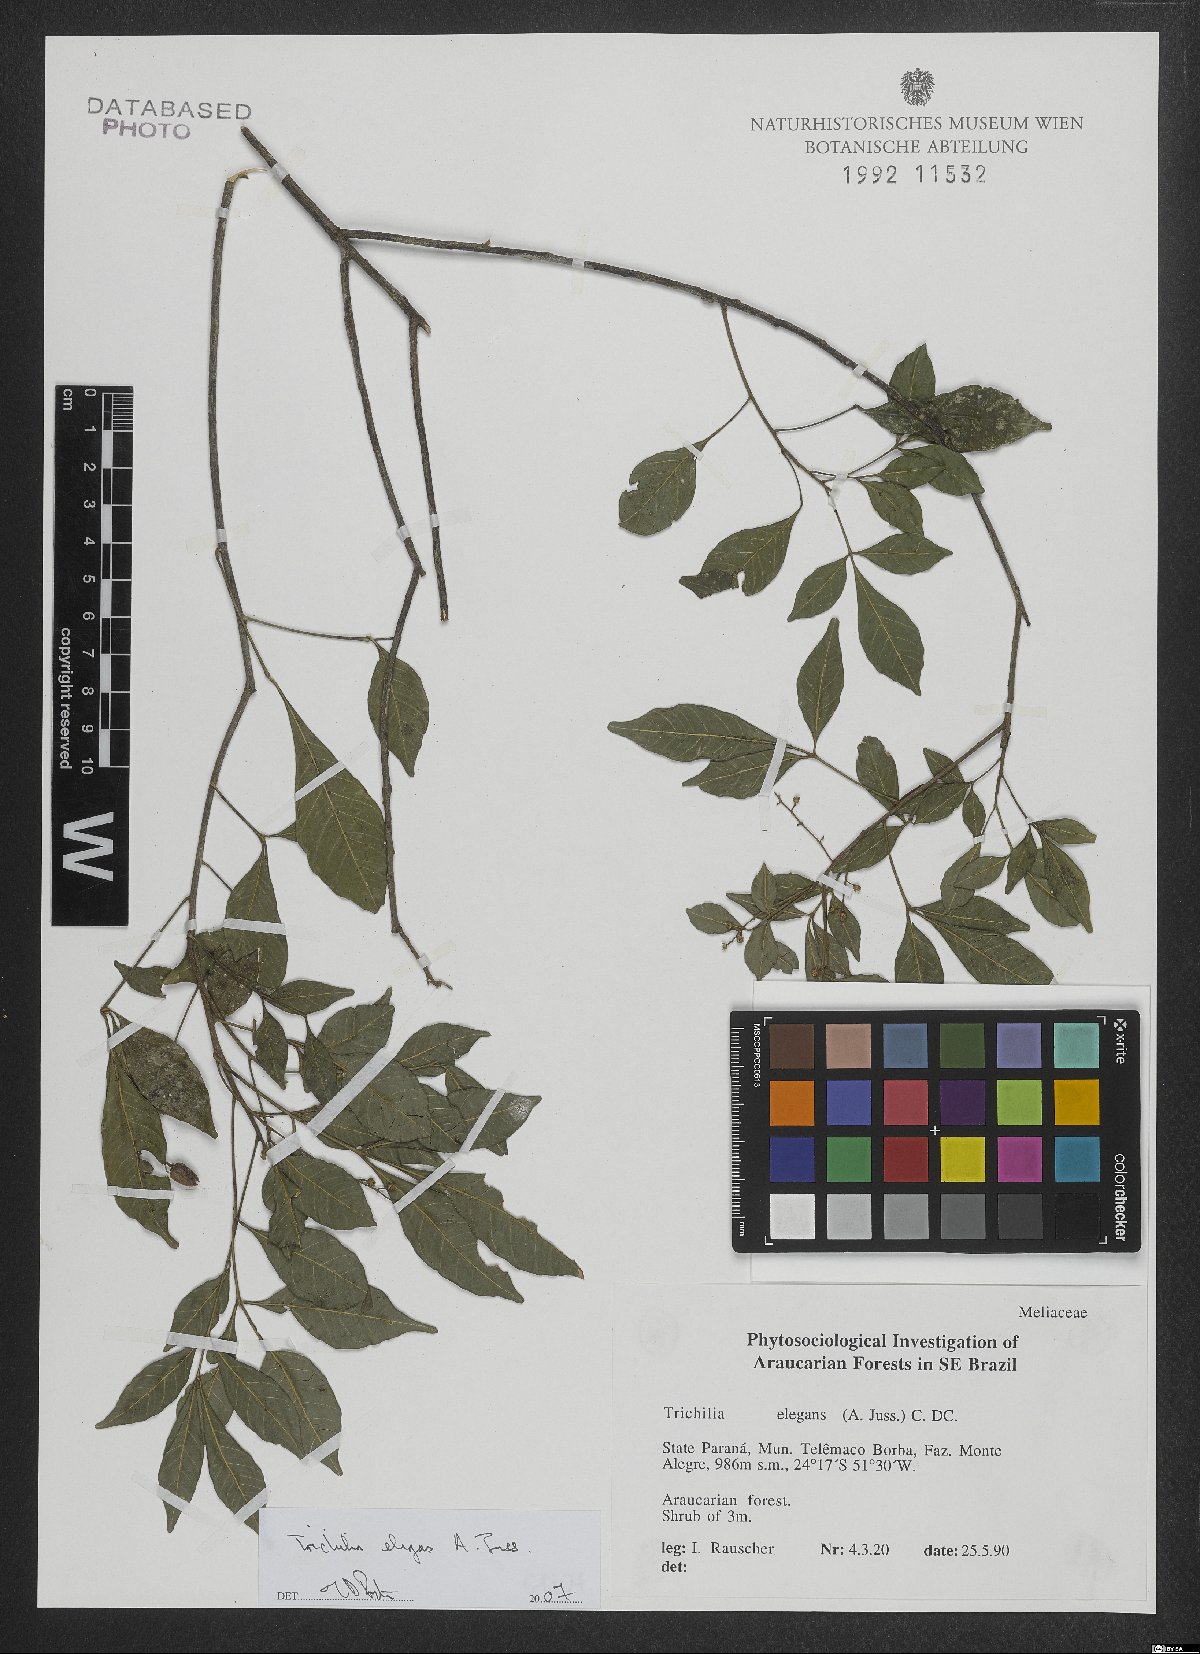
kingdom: Plantae
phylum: Tracheophyta
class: Magnoliopsida
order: Sapindales
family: Meliaceae
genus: Trichilia
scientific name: Trichilia elegans
